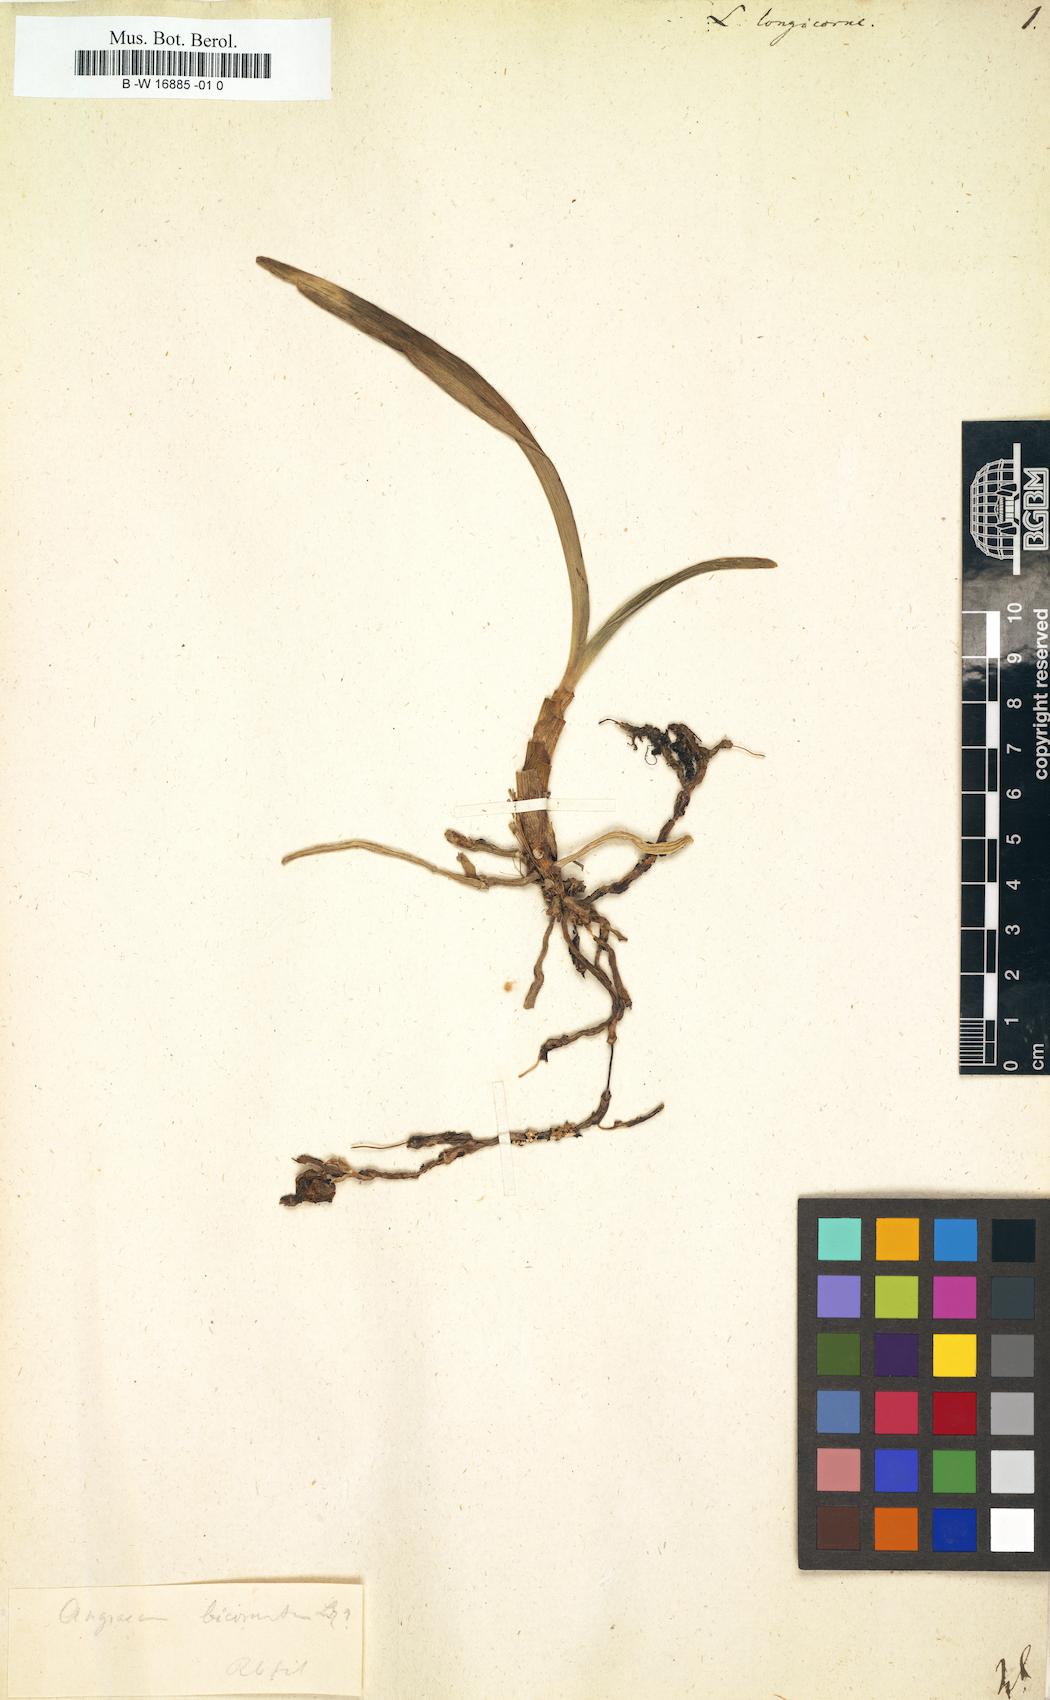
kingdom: Plantae
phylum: Tracheophyta
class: Liliopsida
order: Asparagales
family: Orchidaceae
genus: Mystacidium
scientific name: Mystacidium capense
